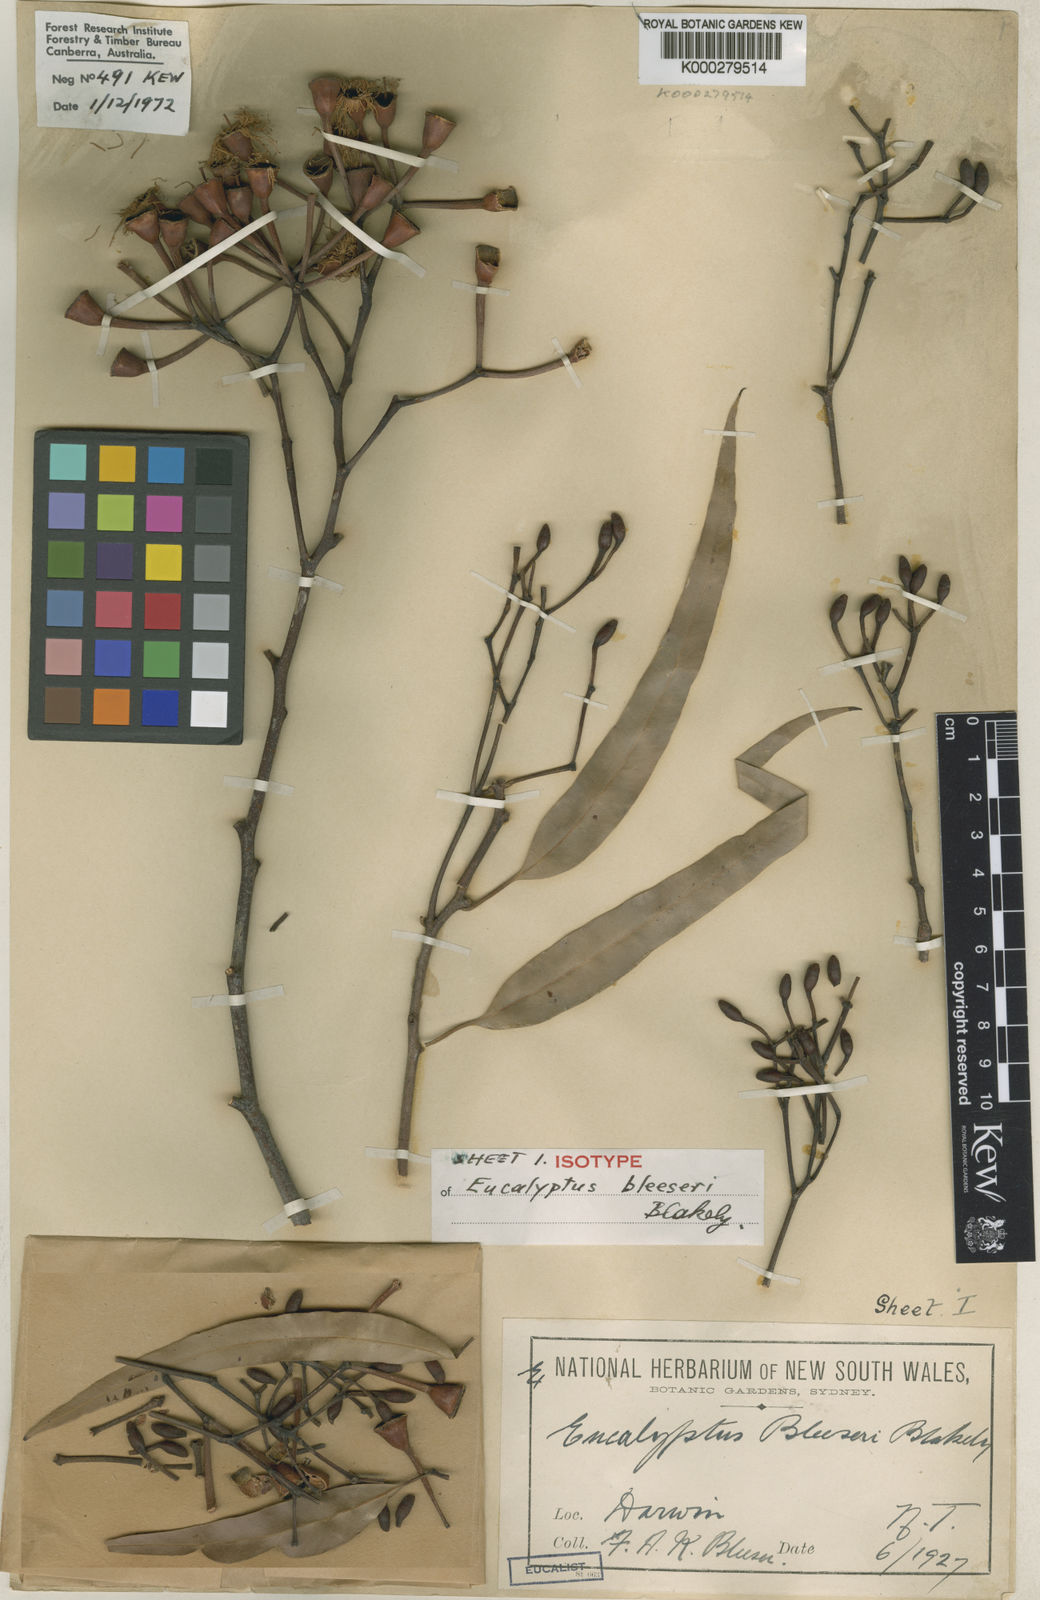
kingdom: Plantae
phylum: Tracheophyta
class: Magnoliopsida
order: Myrtales
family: Myrtaceae
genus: Corymbia
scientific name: Corymbia bleeseri
